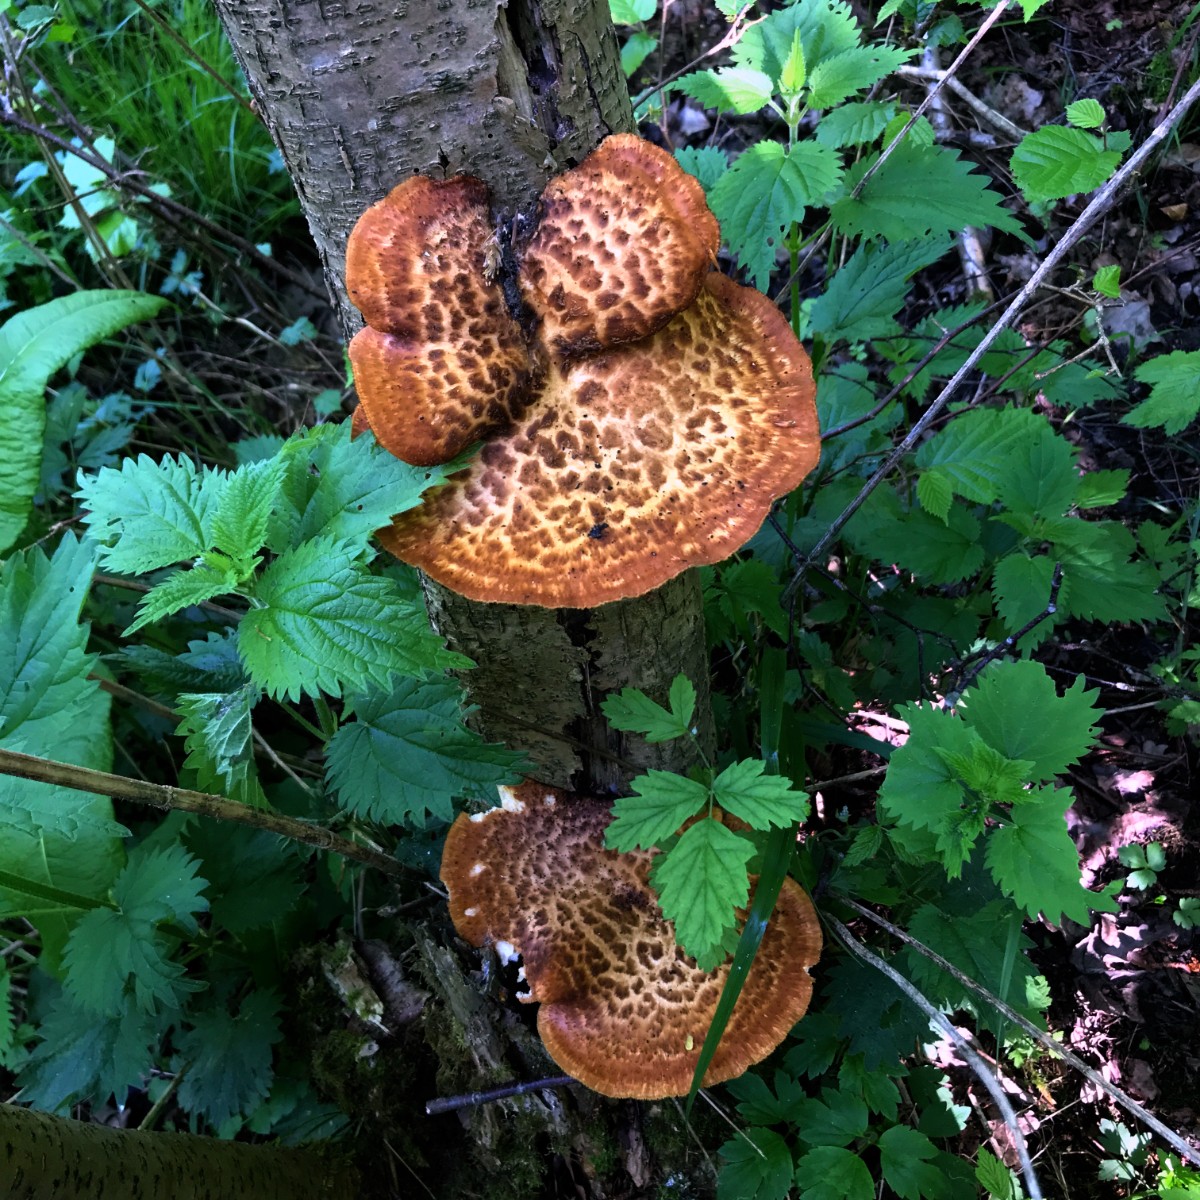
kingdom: Fungi
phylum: Basidiomycota
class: Agaricomycetes
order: Polyporales
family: Polyporaceae
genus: Cerioporus
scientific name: Cerioporus squamosus
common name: skællet stilkporesvamp
